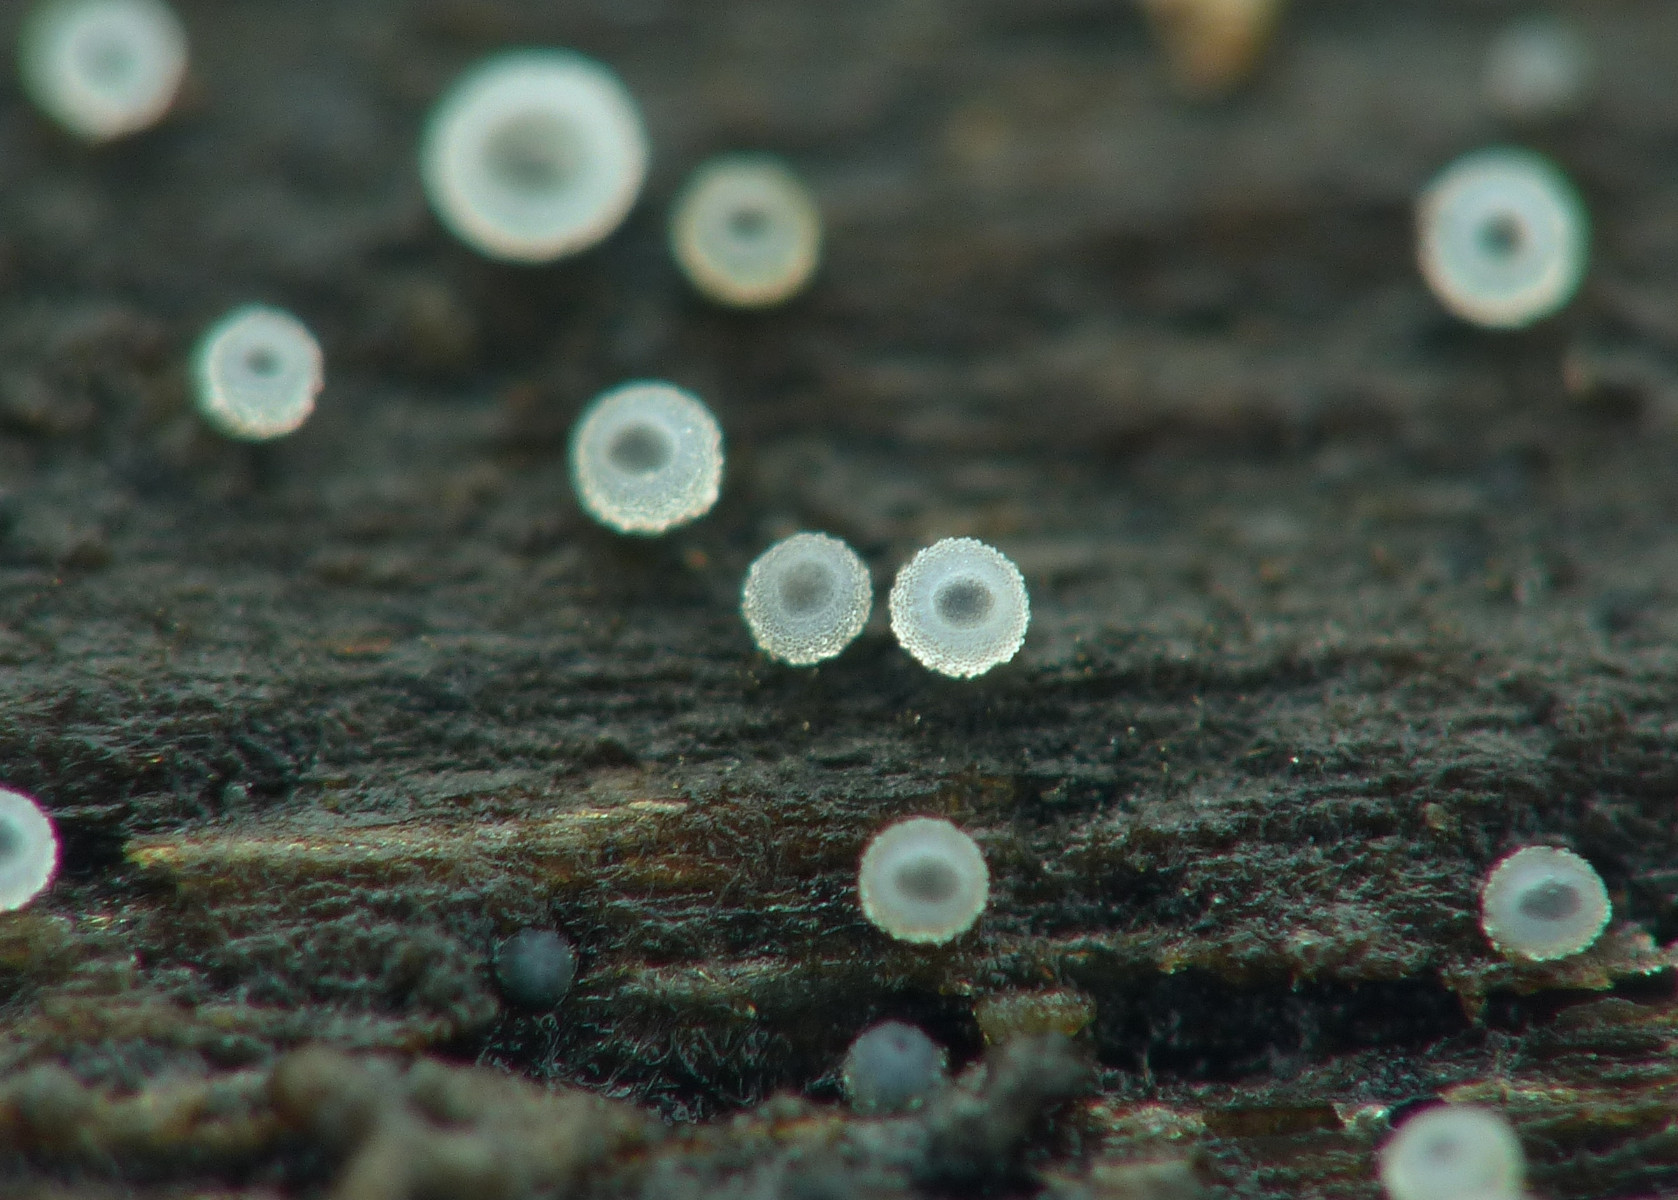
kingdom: Fungi
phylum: Ascomycota
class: Leotiomycetes
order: Helotiales
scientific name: Helotiales
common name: stilkskiveordenen
